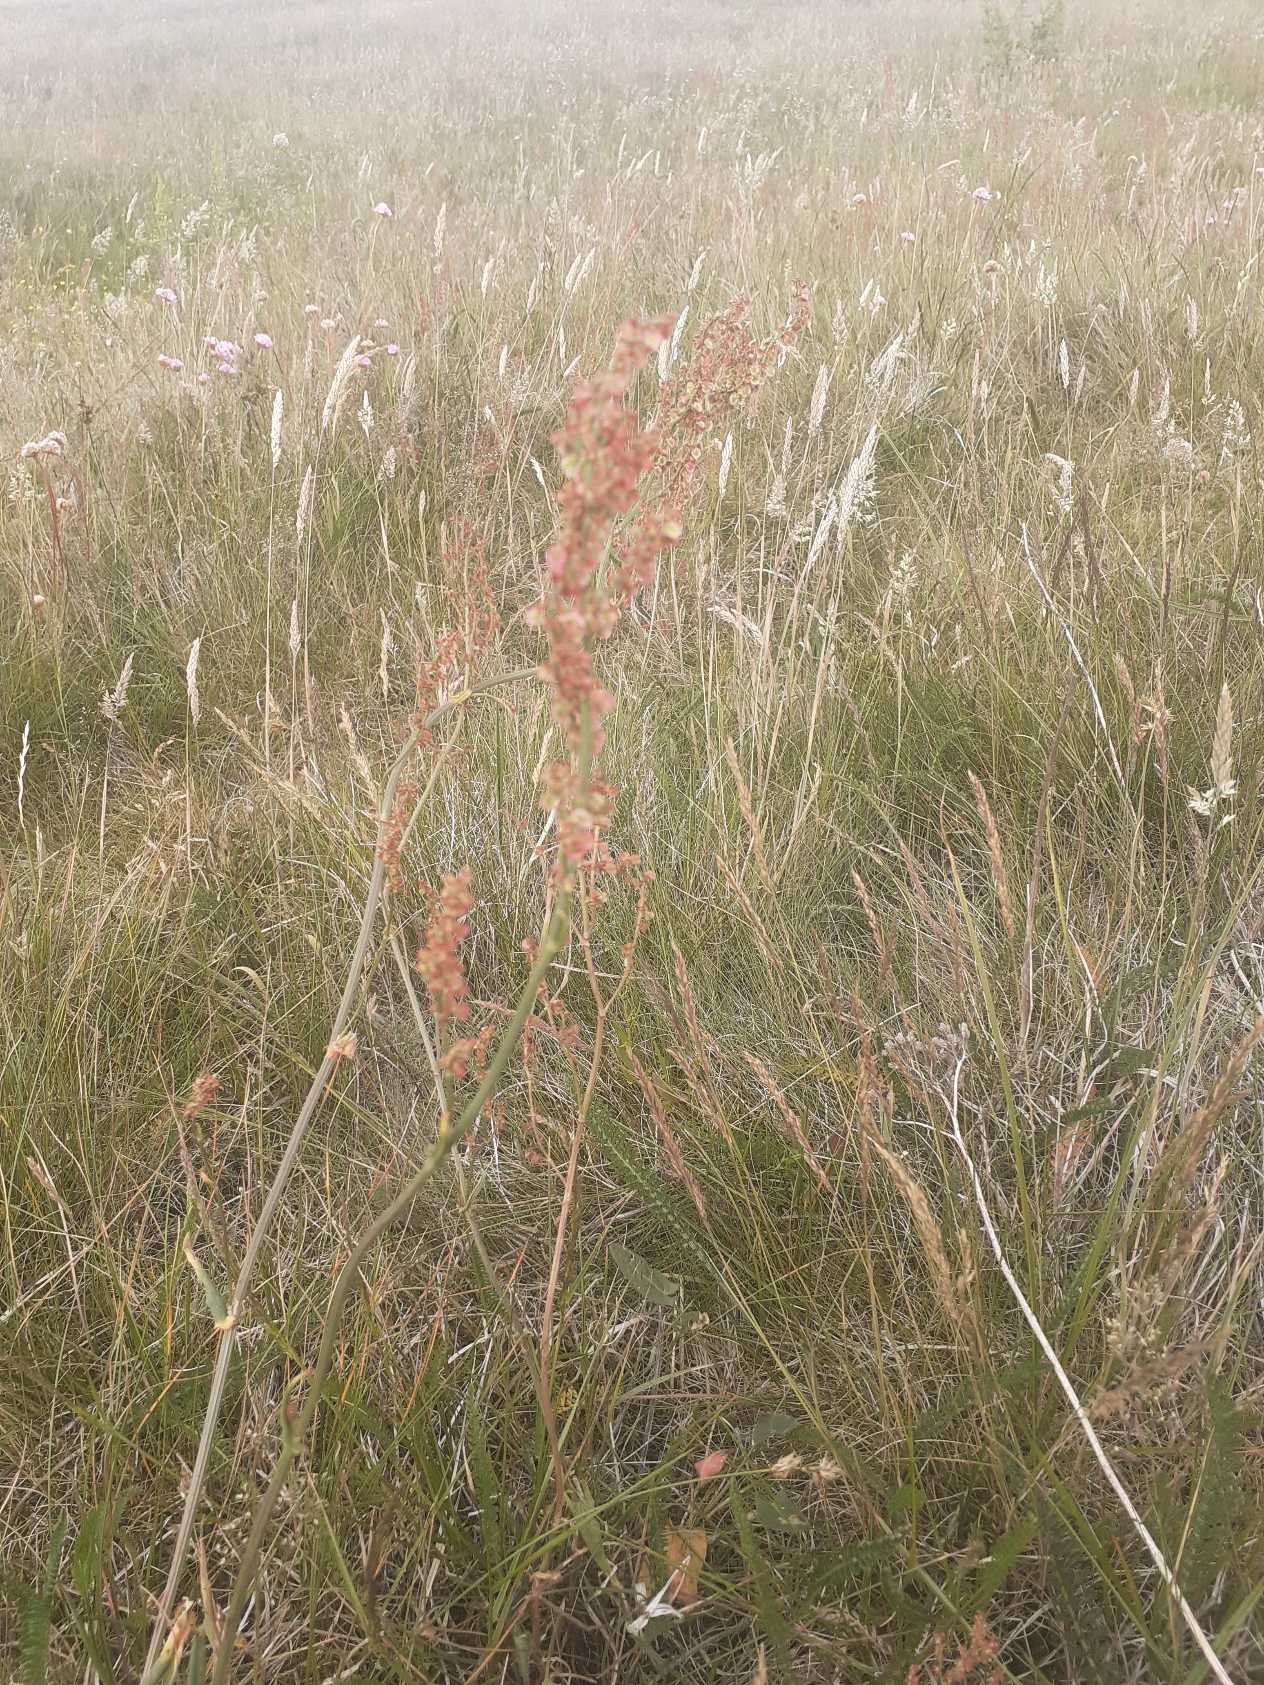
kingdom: Plantae
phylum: Tracheophyta
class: Magnoliopsida
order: Caryophyllales
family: Polygonaceae
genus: Rumex
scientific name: Rumex acetosa
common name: Almindelig syre
